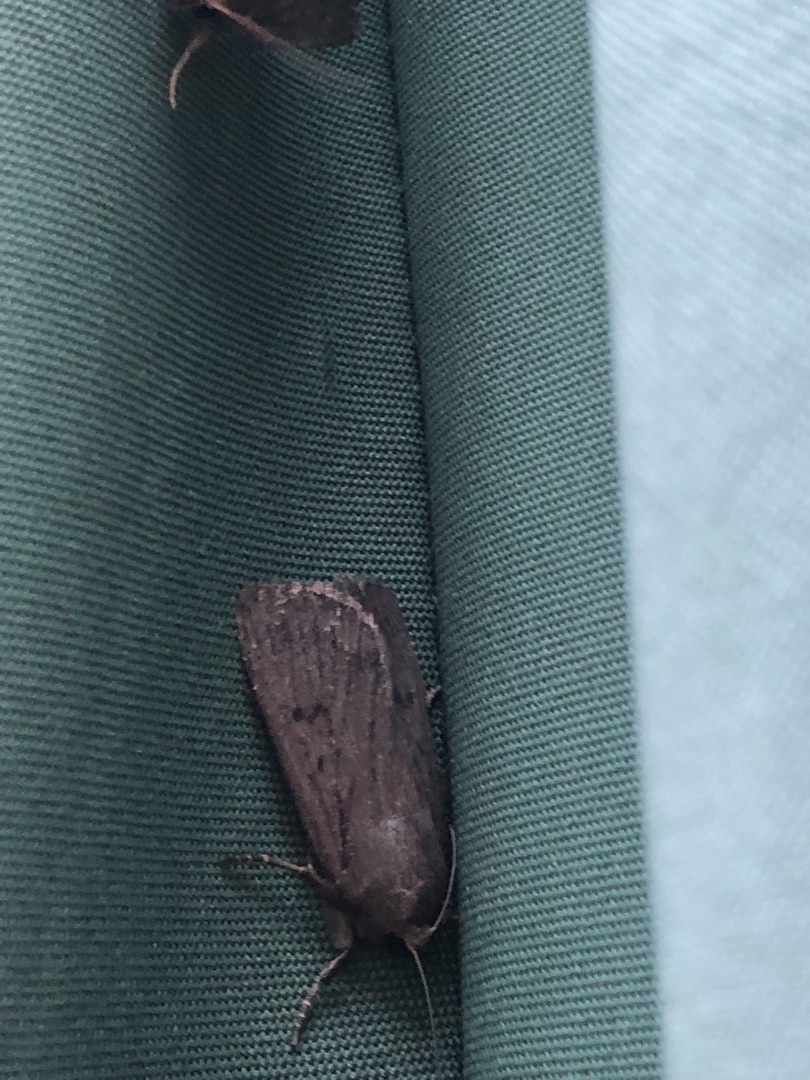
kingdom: Animalia
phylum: Arthropoda
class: Insecta
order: Lepidoptera
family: Noctuidae
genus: Amphipyra
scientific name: Amphipyra tragopoginis
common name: Blyantsugle
